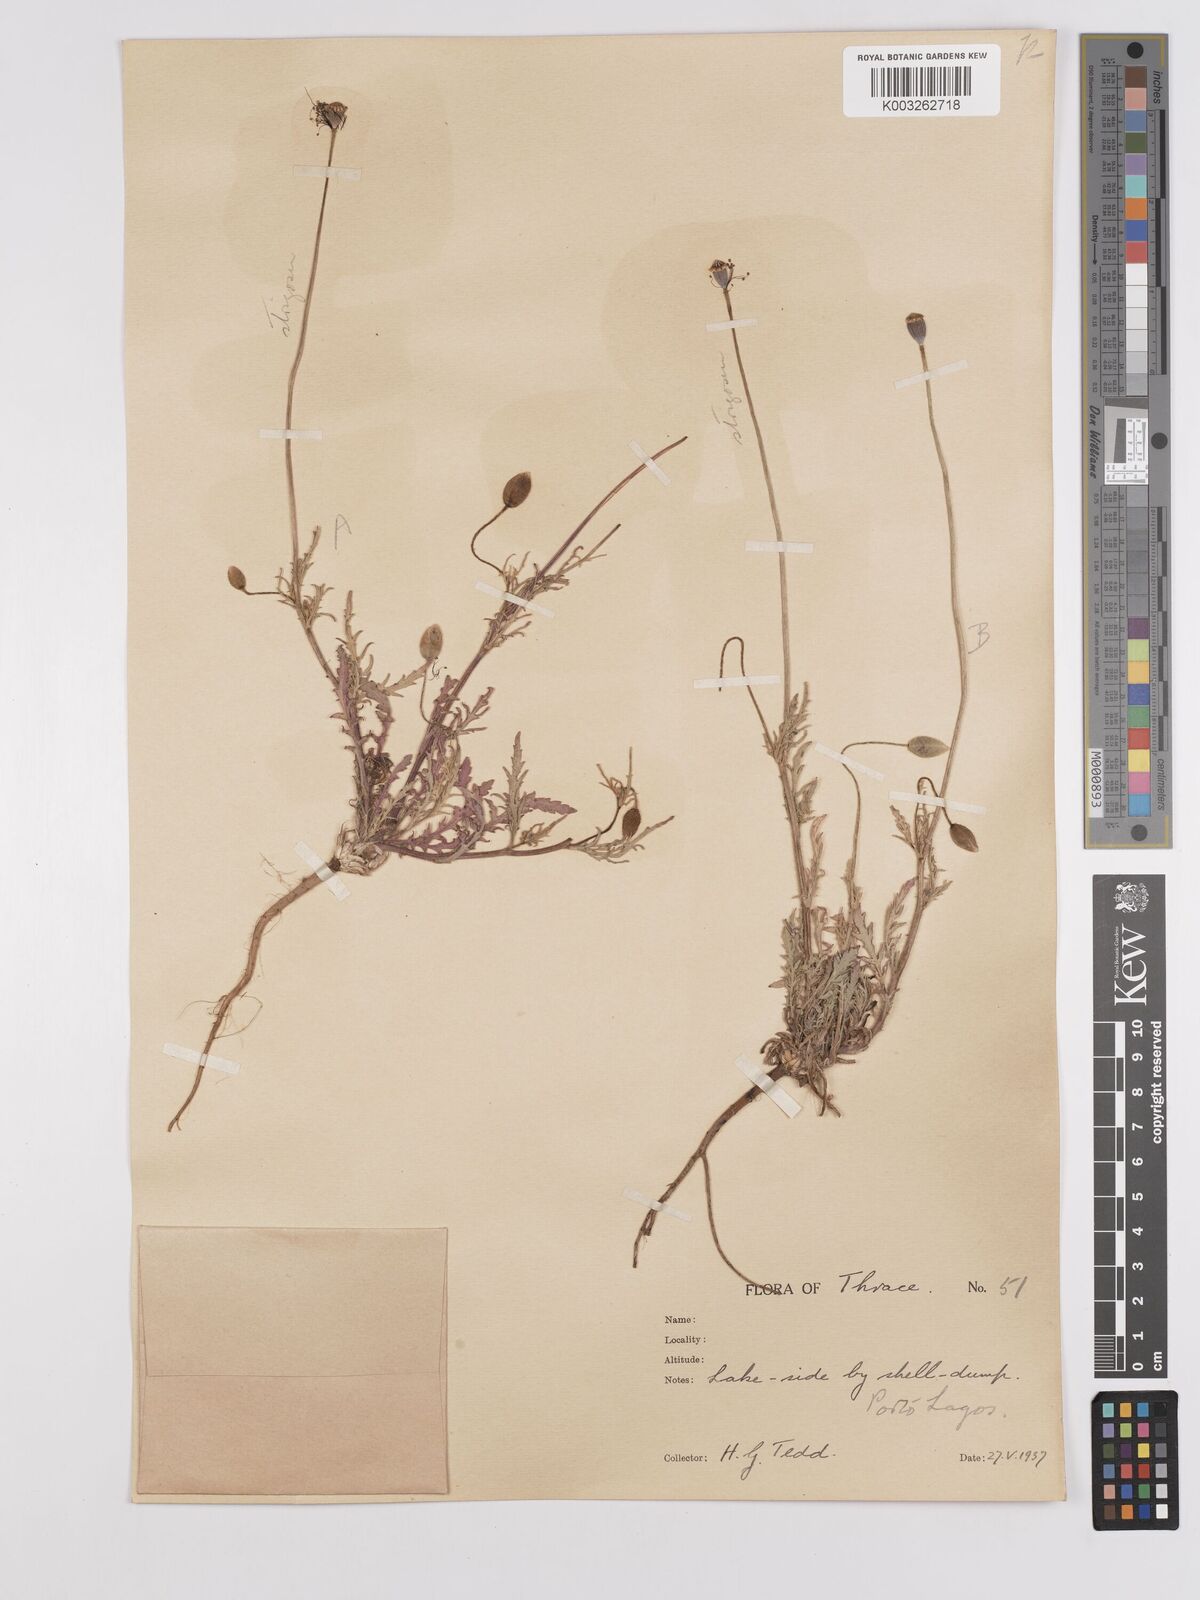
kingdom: Plantae
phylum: Tracheophyta
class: Magnoliopsida
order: Ranunculales
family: Papaveraceae
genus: Papaver
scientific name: Papaver
